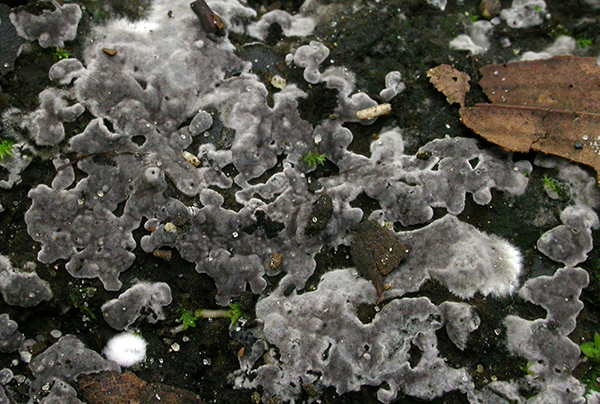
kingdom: Fungi
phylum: Basidiomycota
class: Agaricomycetes
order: Thelephorales
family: Thelephoraceae
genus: Tomentella
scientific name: Tomentella
